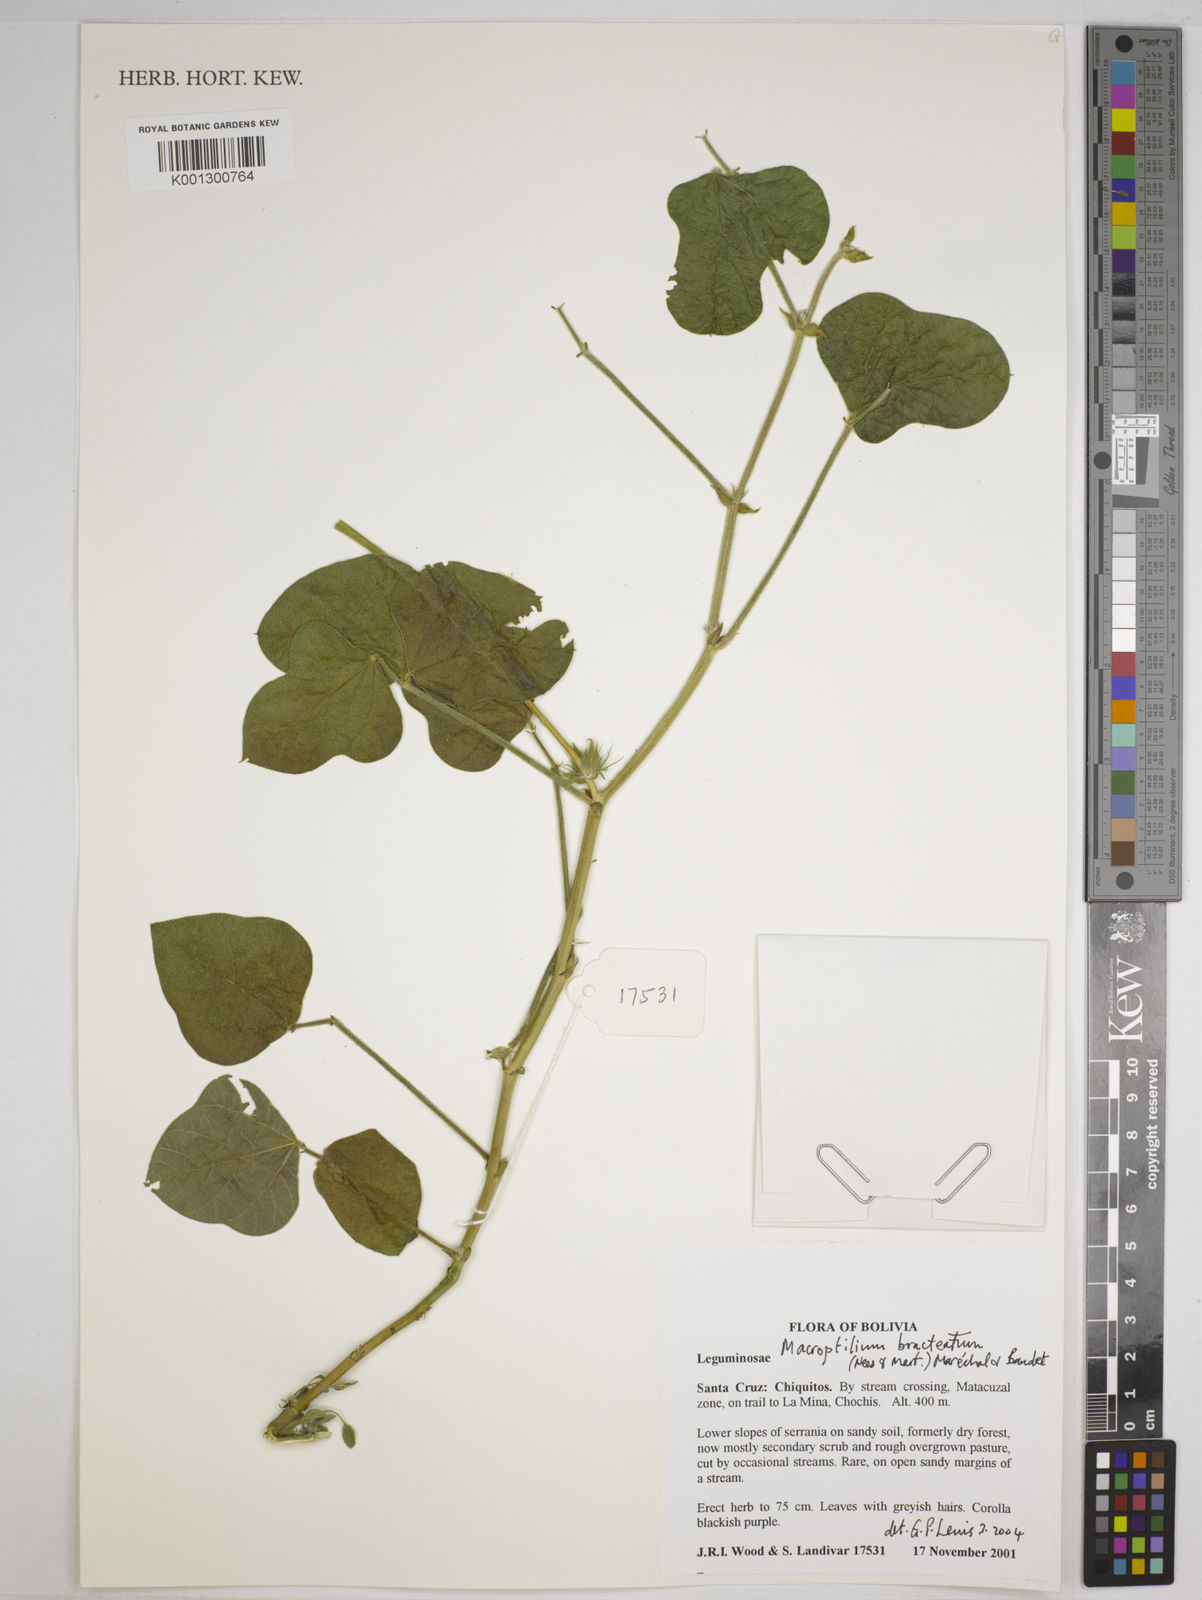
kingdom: Plantae
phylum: Tracheophyta
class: Magnoliopsida
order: Fabales
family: Fabaceae
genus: Macroptilium
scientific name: Macroptilium bracteatum
